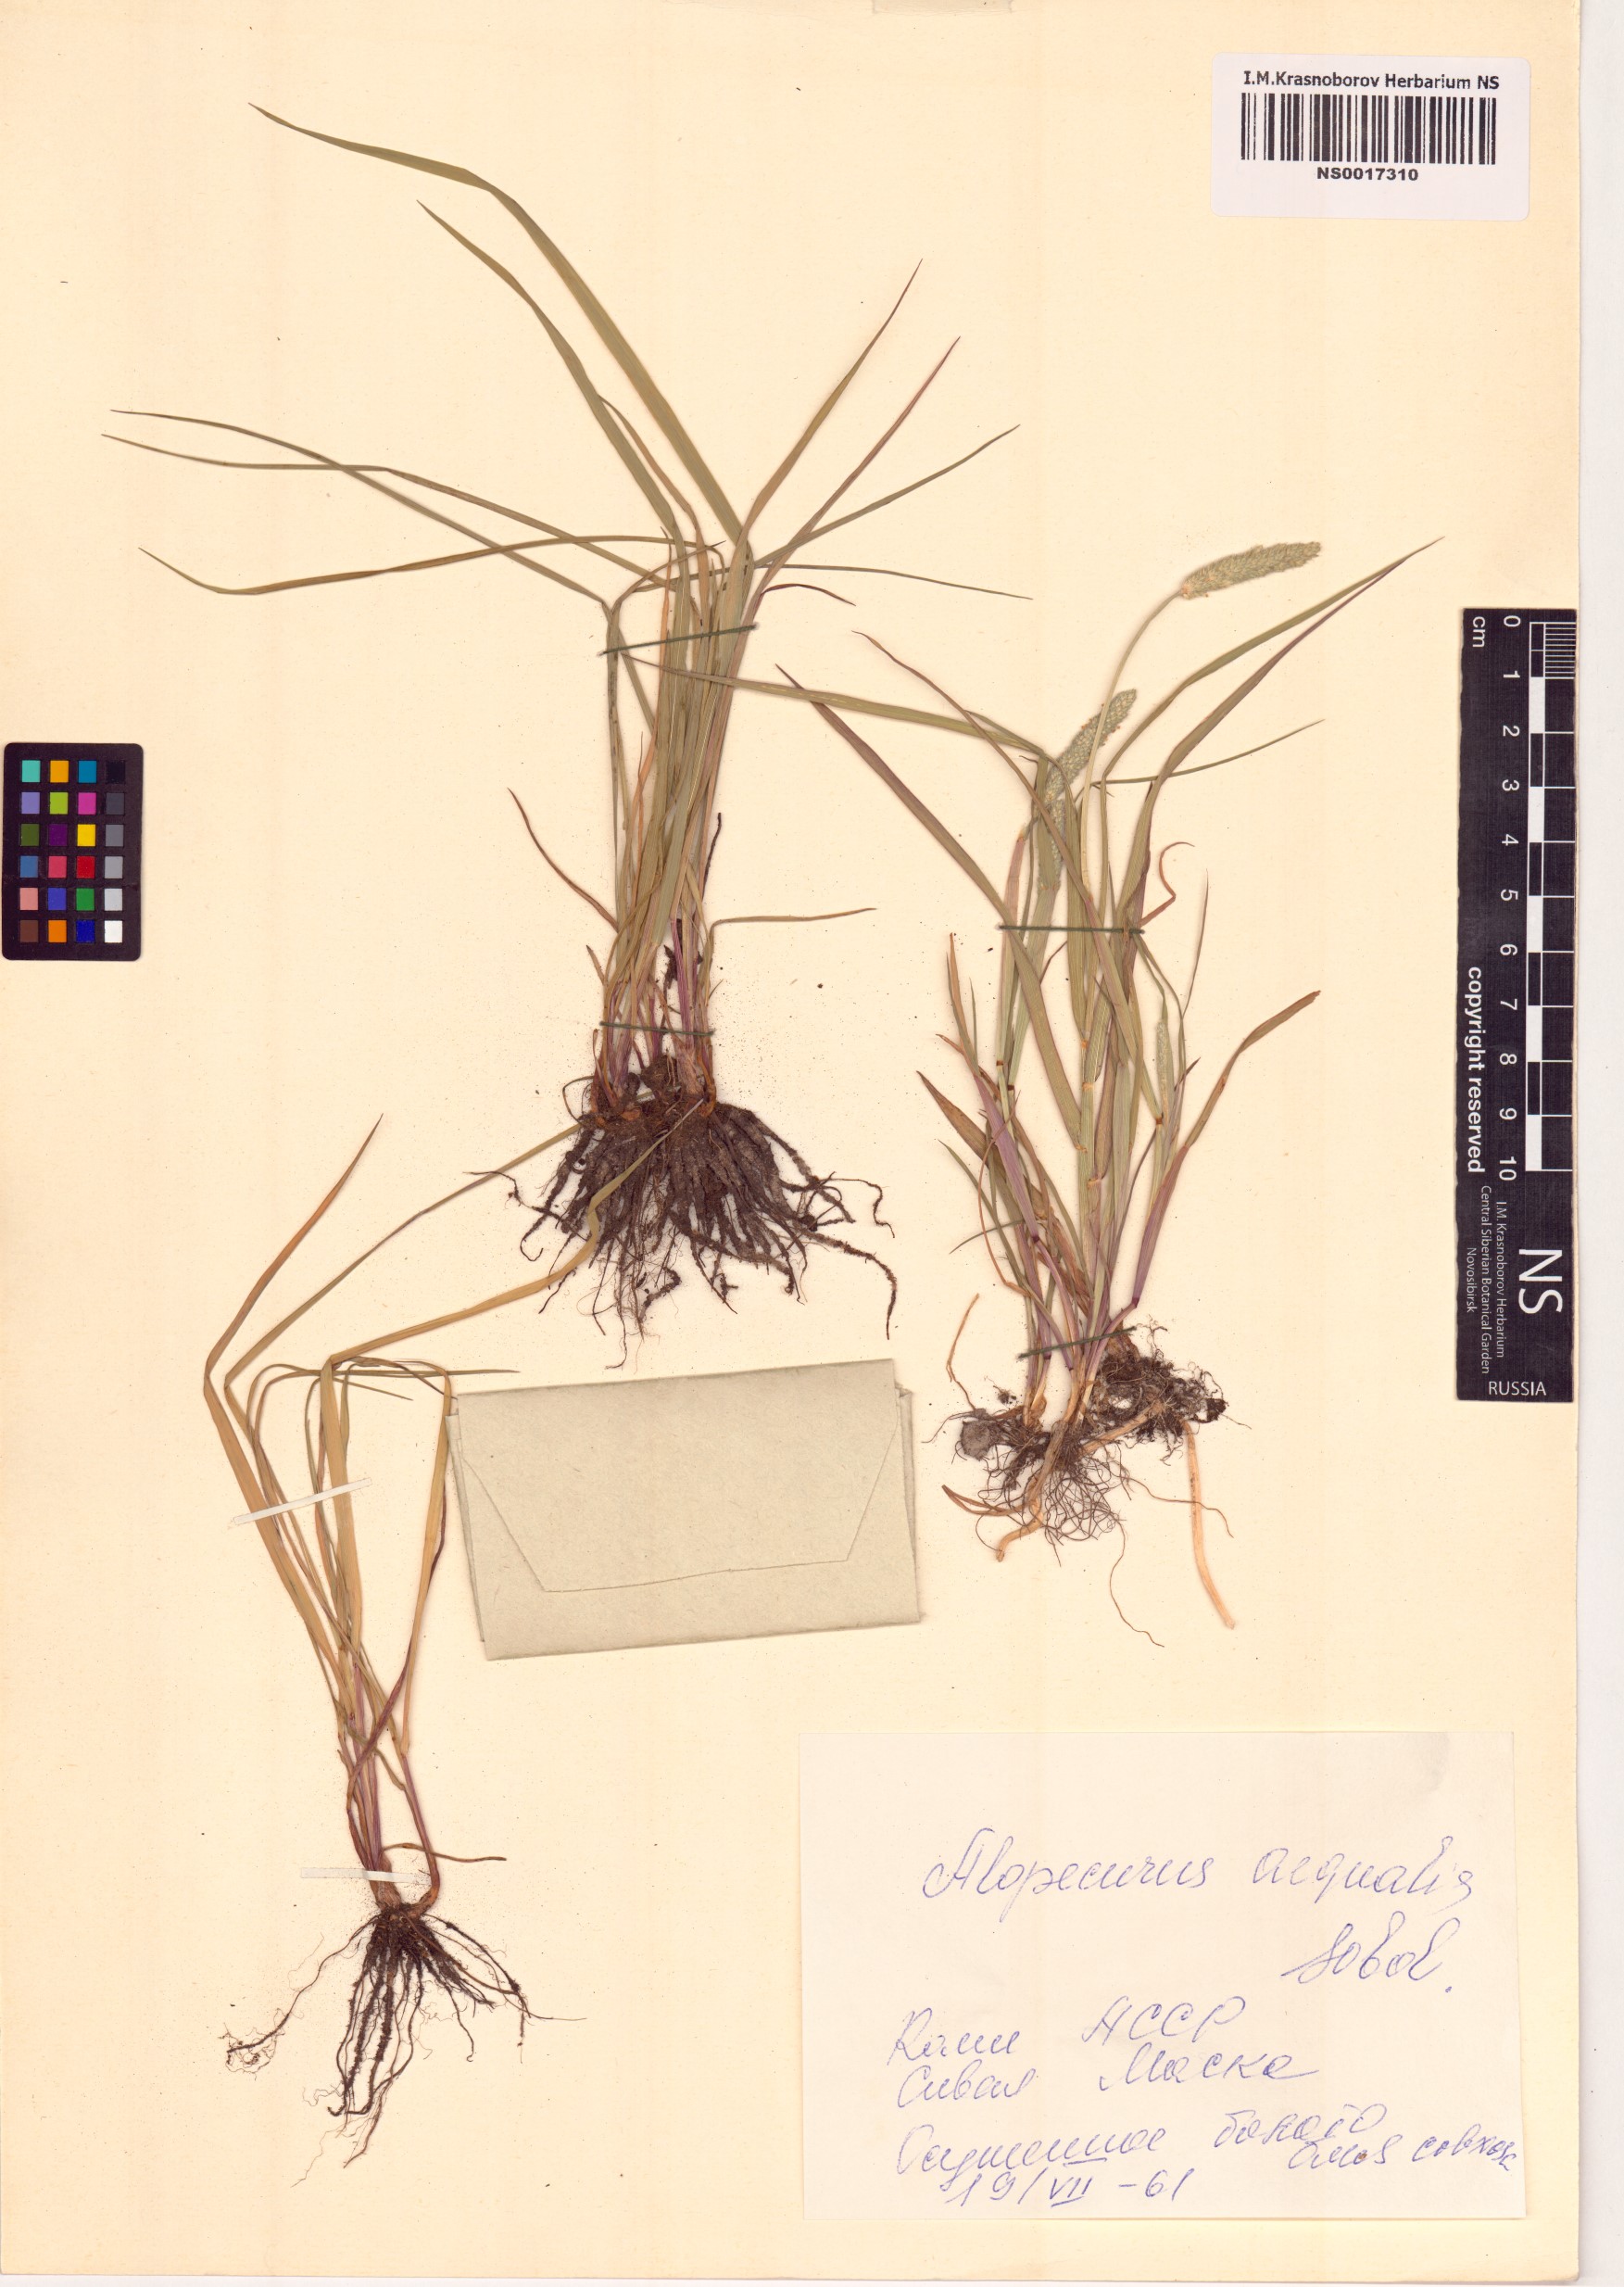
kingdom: Plantae
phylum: Tracheophyta
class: Liliopsida
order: Poales
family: Poaceae
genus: Alopecurus
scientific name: Alopecurus aequalis
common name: Orange foxtail
